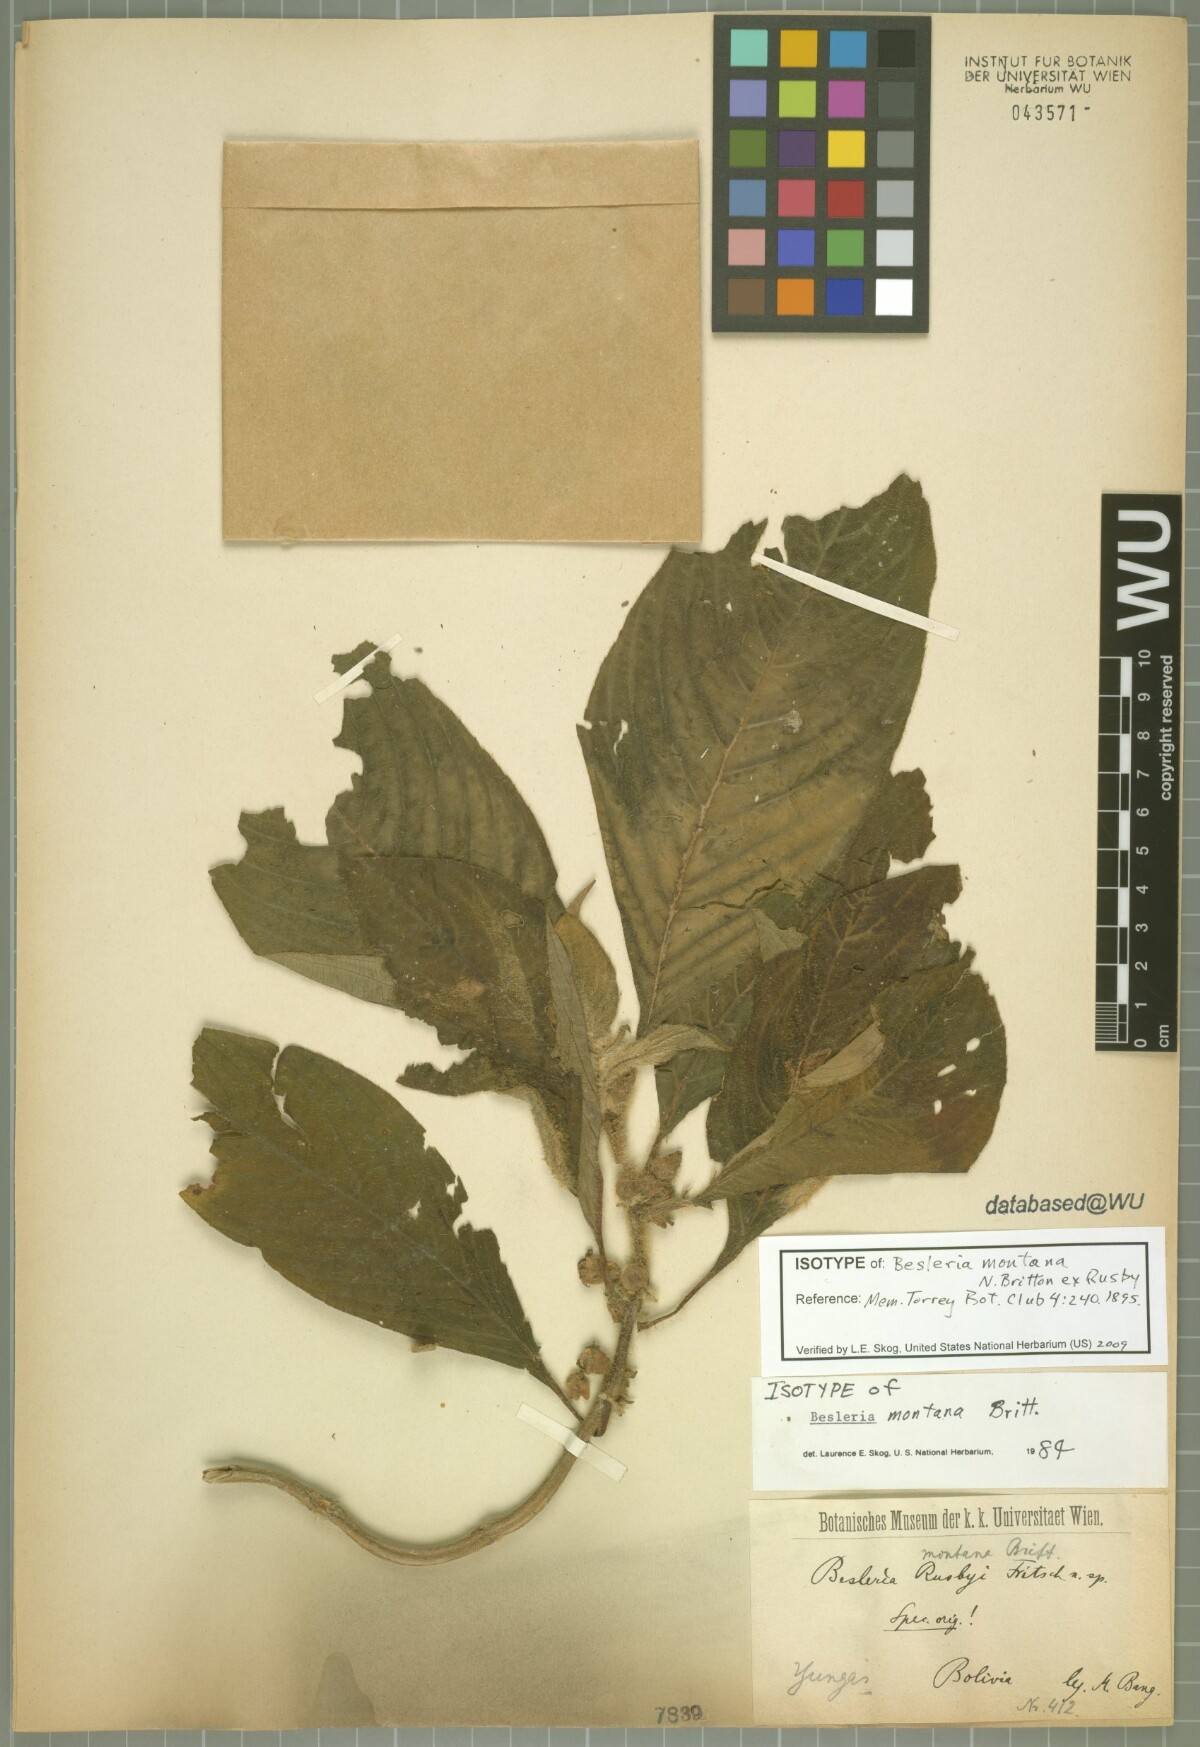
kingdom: Plantae
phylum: Tracheophyta
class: Magnoliopsida
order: Lamiales
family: Gesneriaceae
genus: Besleria
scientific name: Besleria montana
